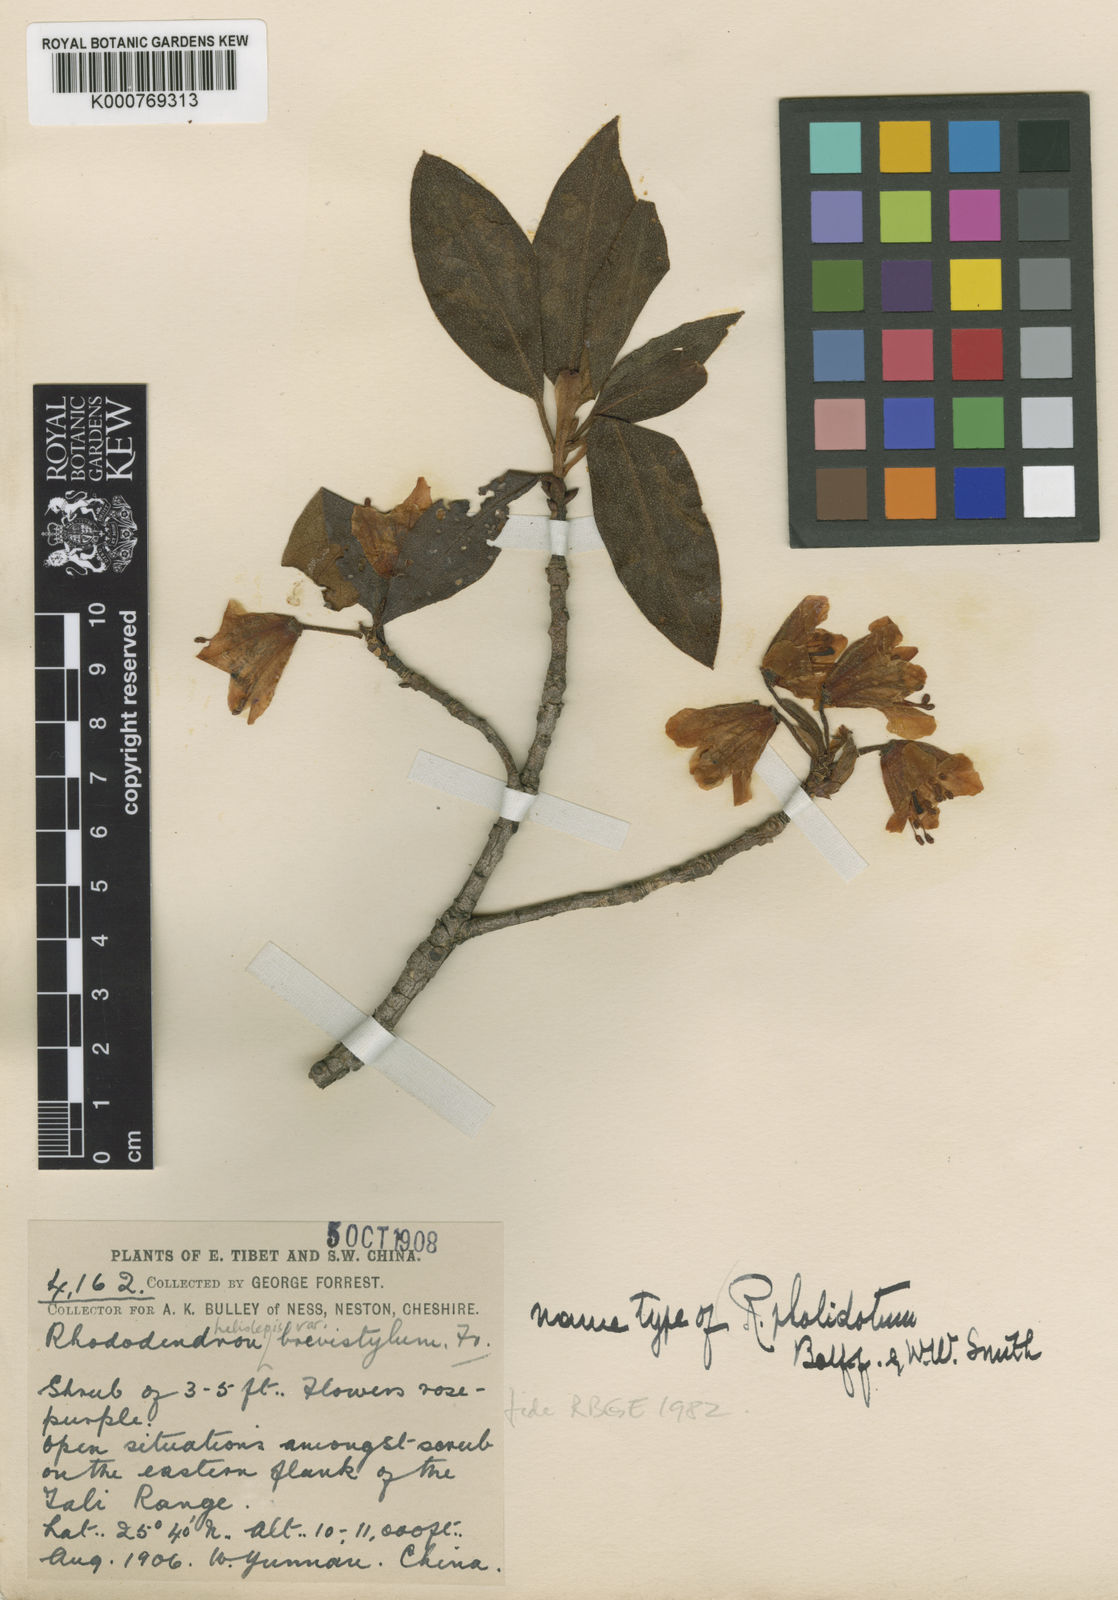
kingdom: Plantae
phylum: Tracheophyta
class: Magnoliopsida
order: Ericales
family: Ericaceae
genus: Rhododendron
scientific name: Rhododendron heliolepis
